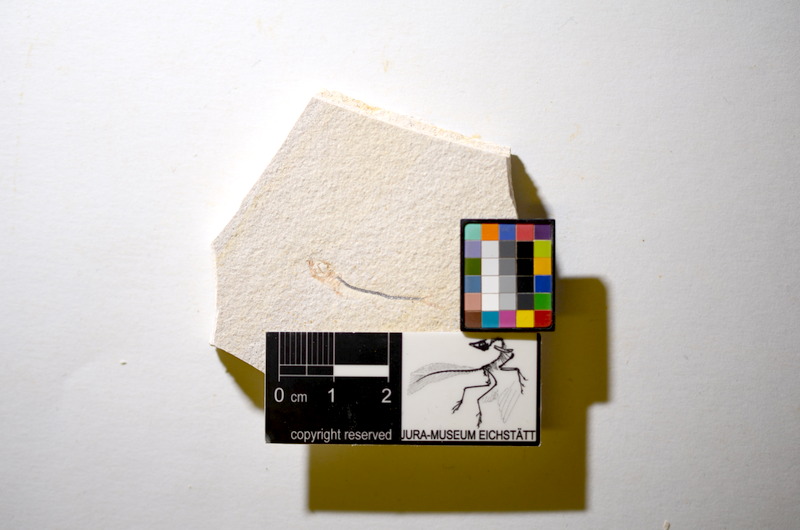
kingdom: Animalia
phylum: Chordata
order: Salmoniformes
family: Orthogonikleithridae
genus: Orthogonikleithrus
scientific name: Orthogonikleithrus hoelli
